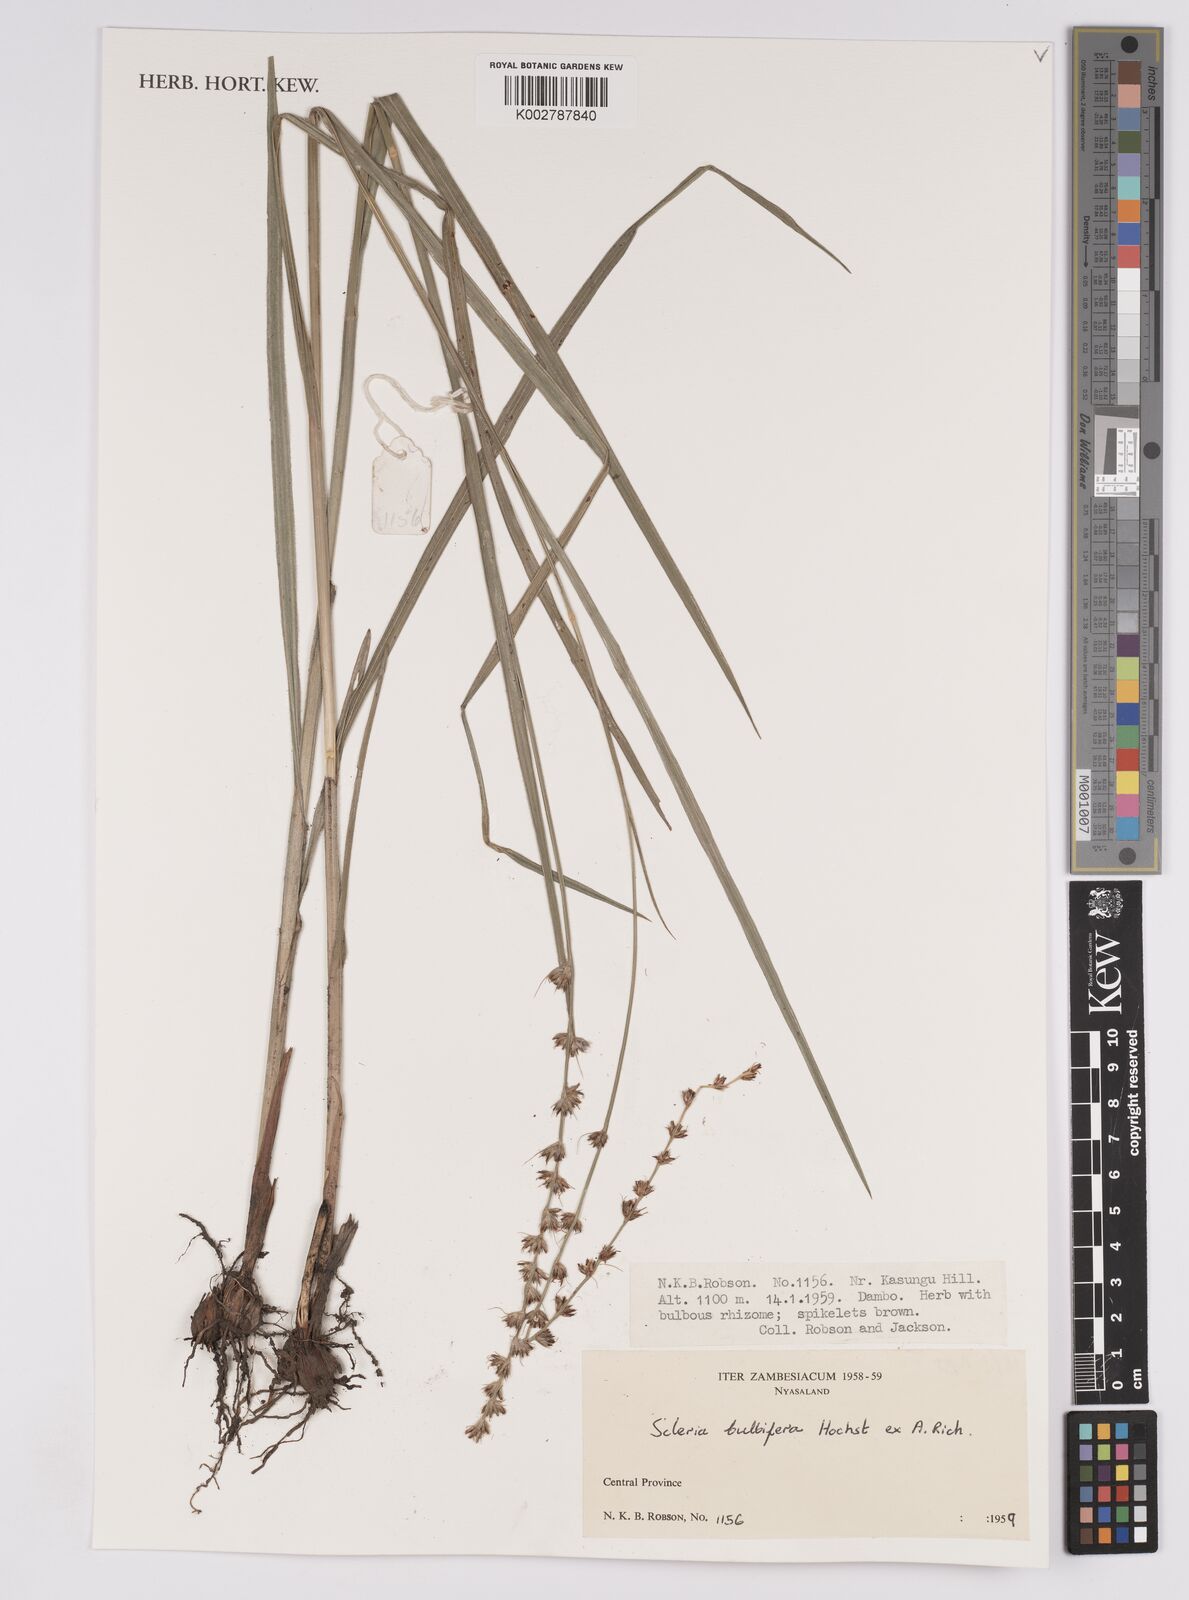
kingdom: Plantae
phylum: Tracheophyta
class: Liliopsida
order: Poales
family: Cyperaceae
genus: Scleria
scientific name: Scleria bulbifera
